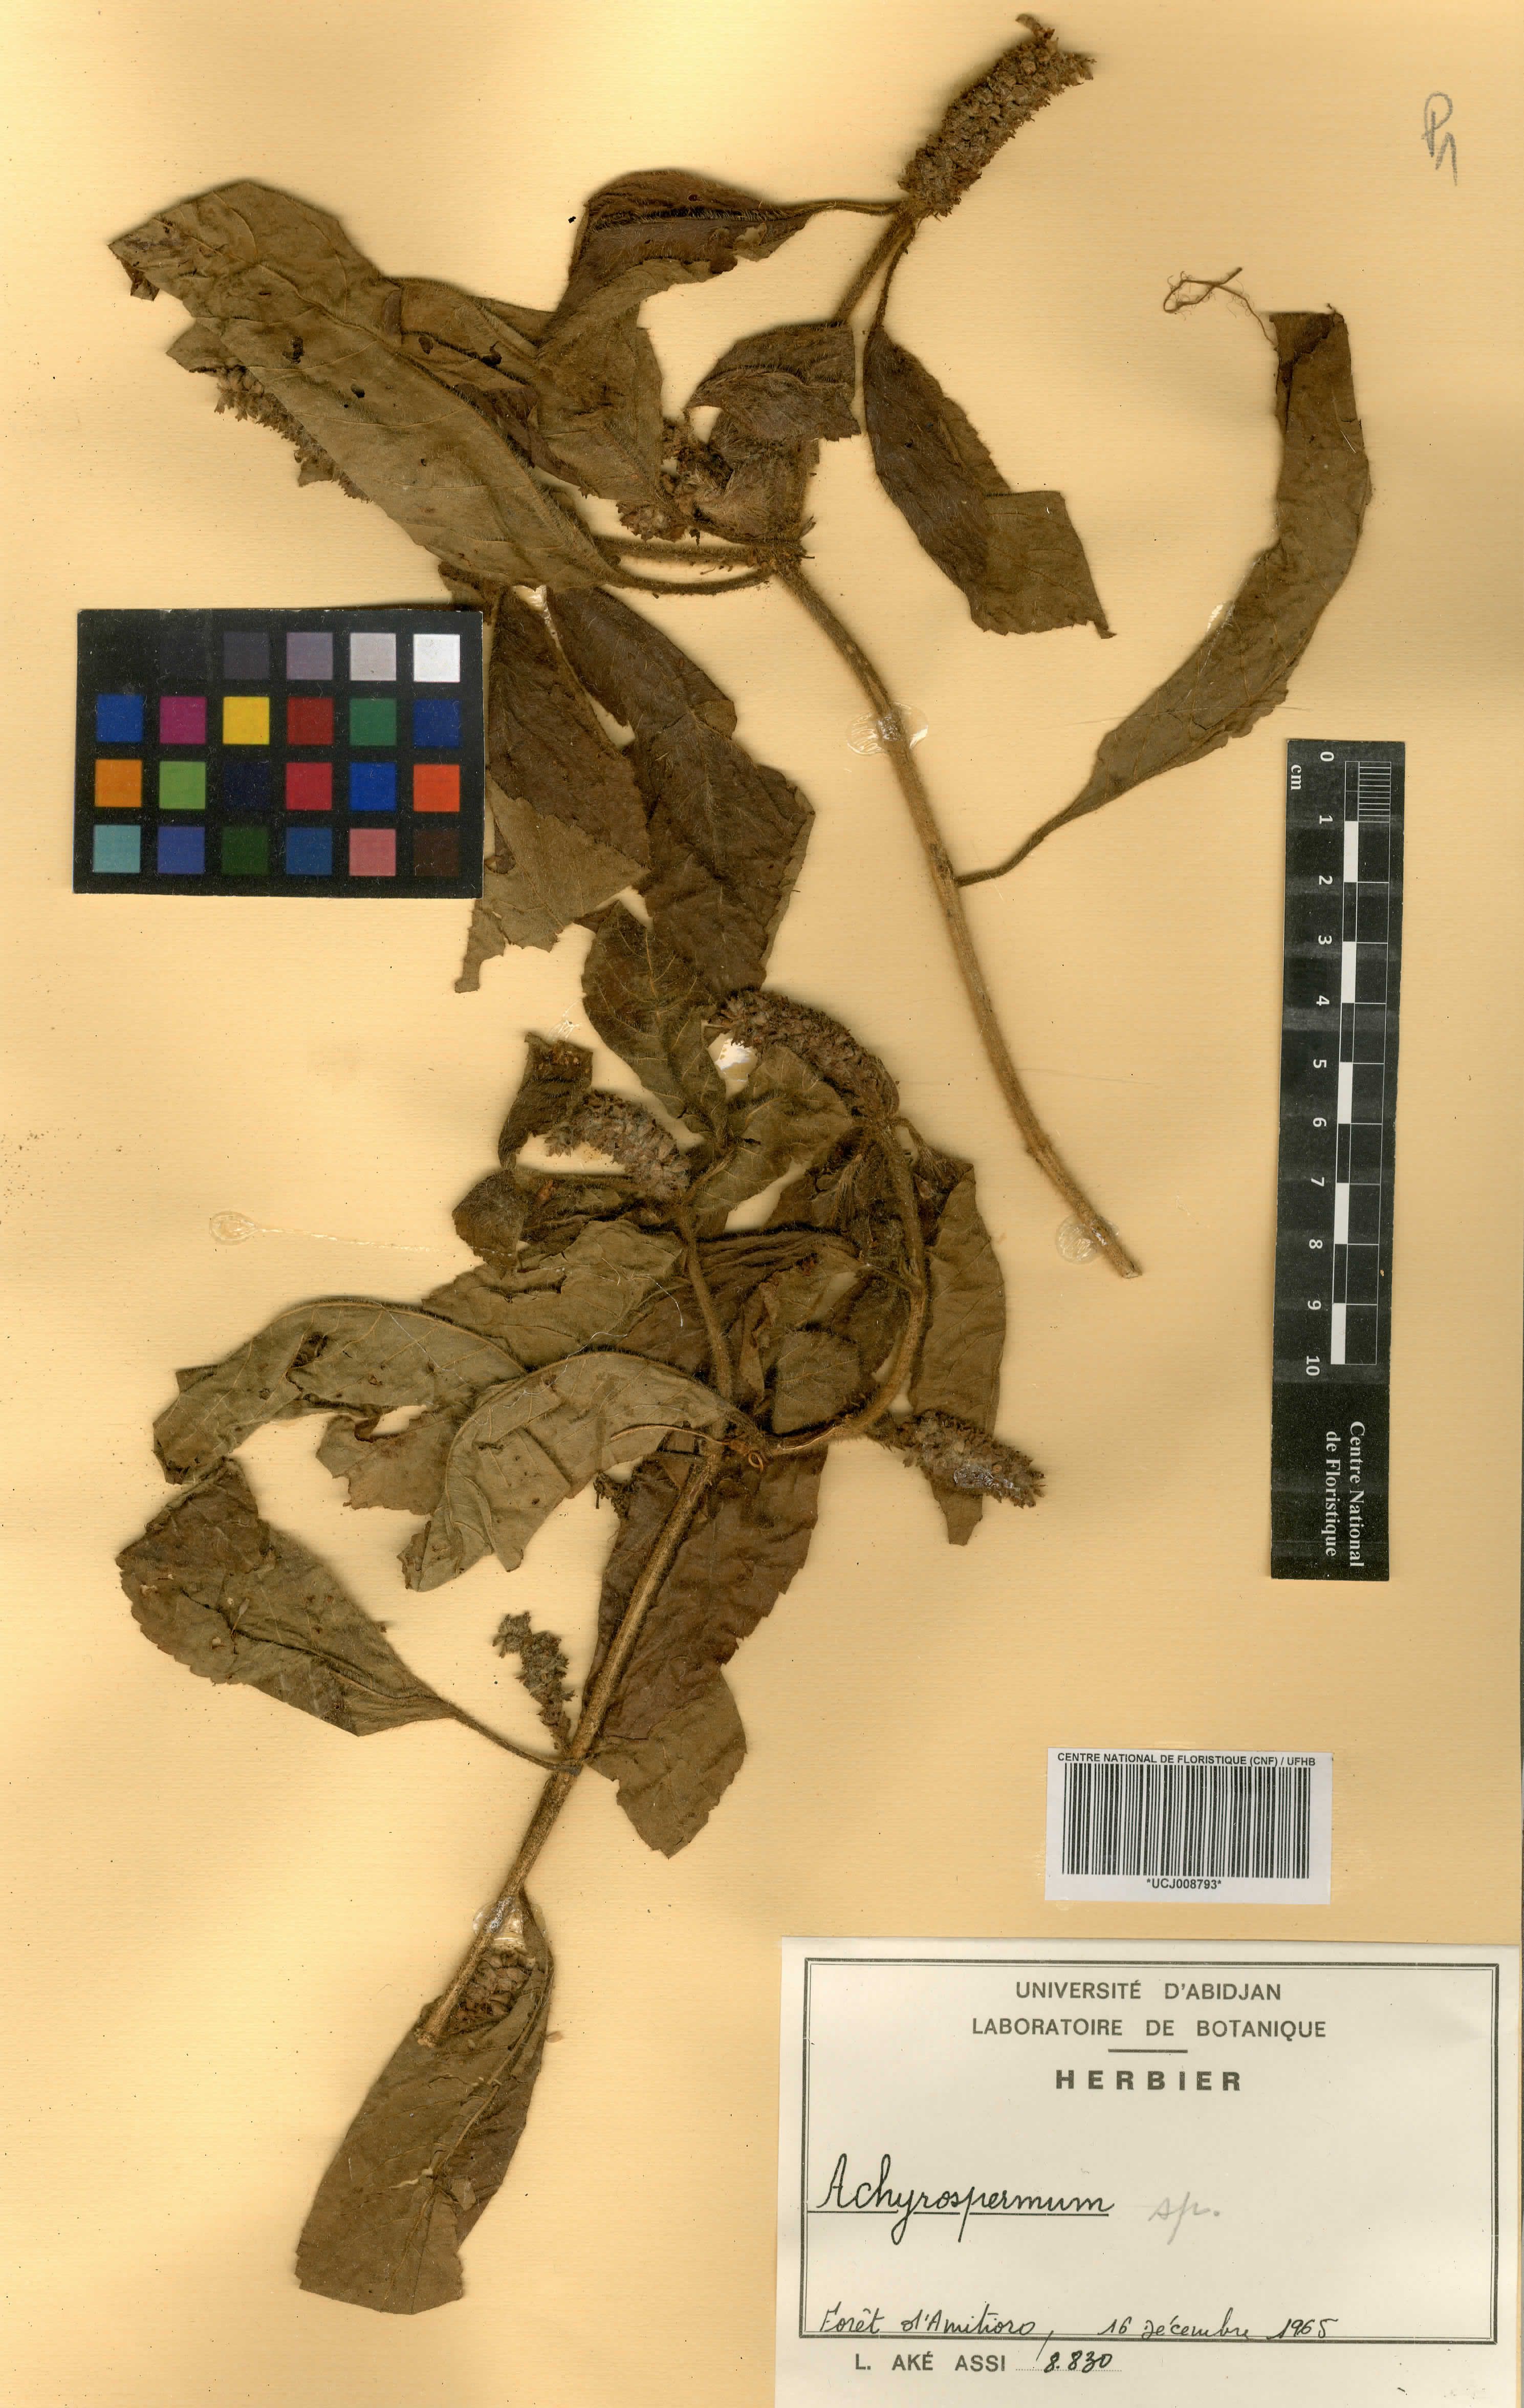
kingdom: Plantae
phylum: Tracheophyta
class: Magnoliopsida
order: Lamiales
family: Lamiaceae
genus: Achyrospermum
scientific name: Achyrospermum
